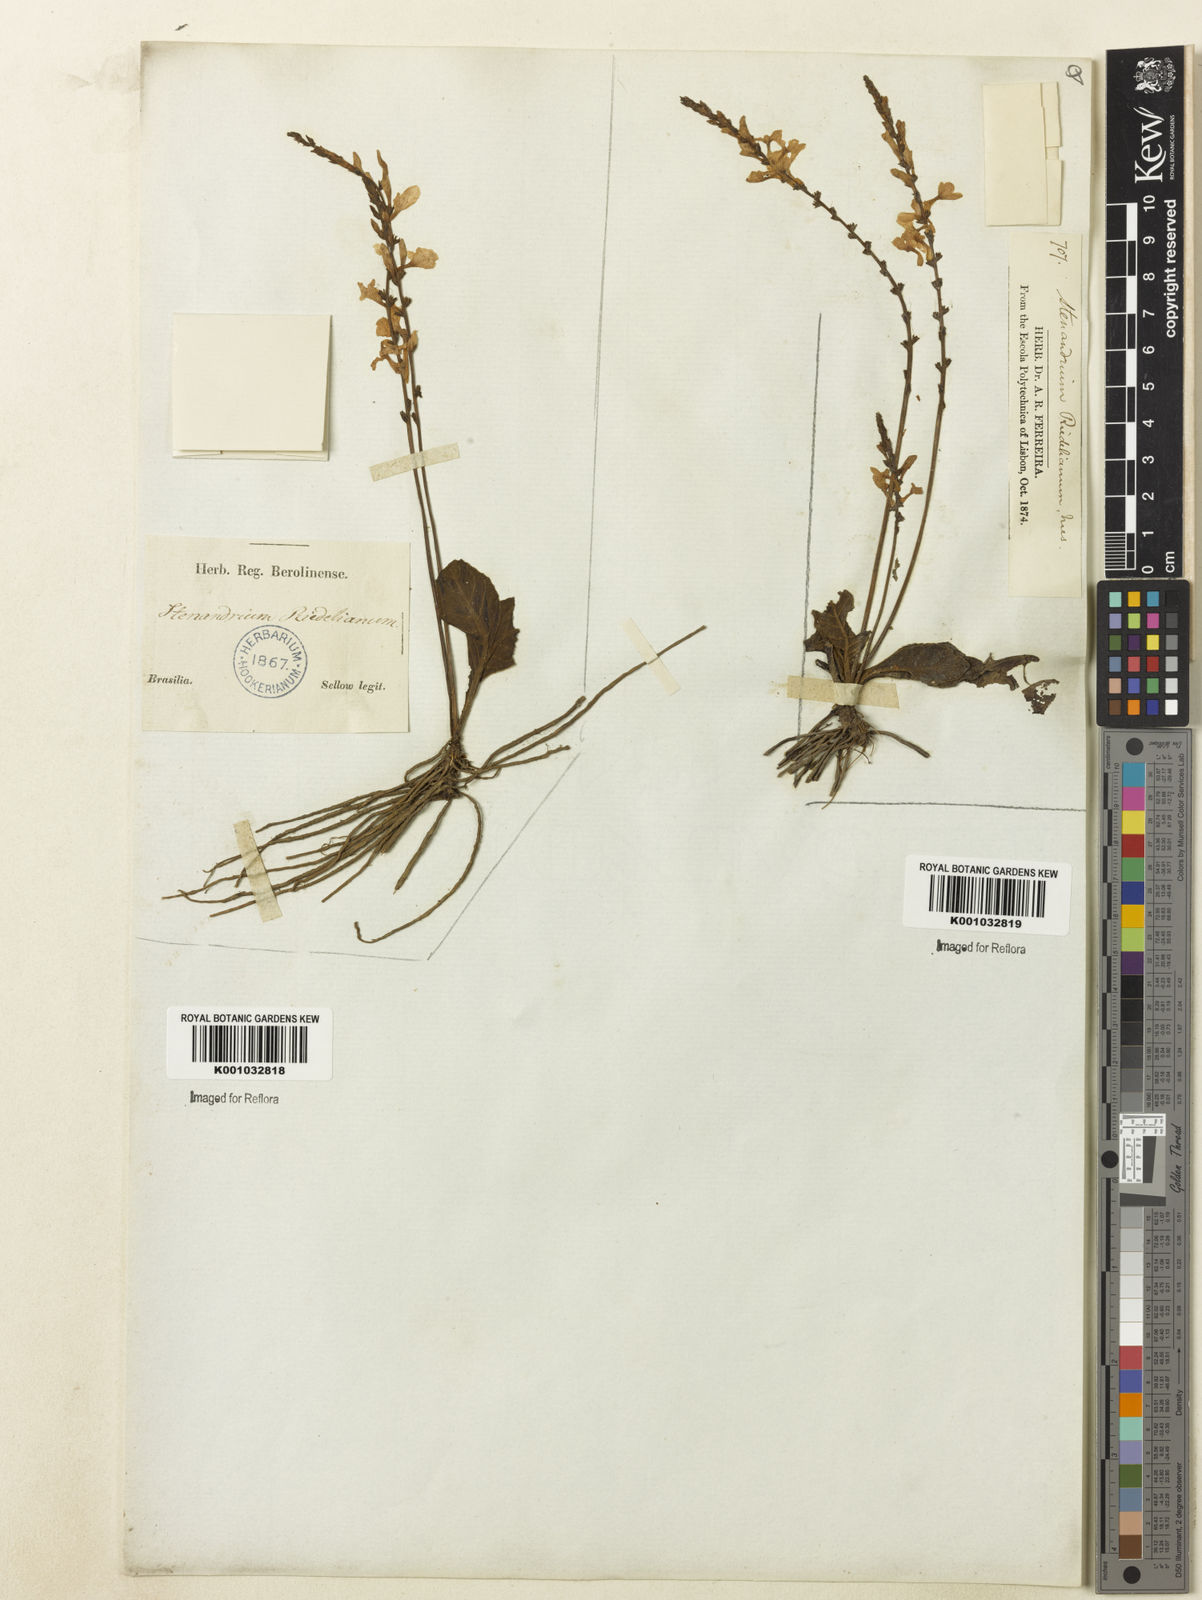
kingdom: Plantae
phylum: Tracheophyta
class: Magnoliopsida
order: Lamiales
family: Acanthaceae
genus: Stenandrium
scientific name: Stenandrium riedelianum
